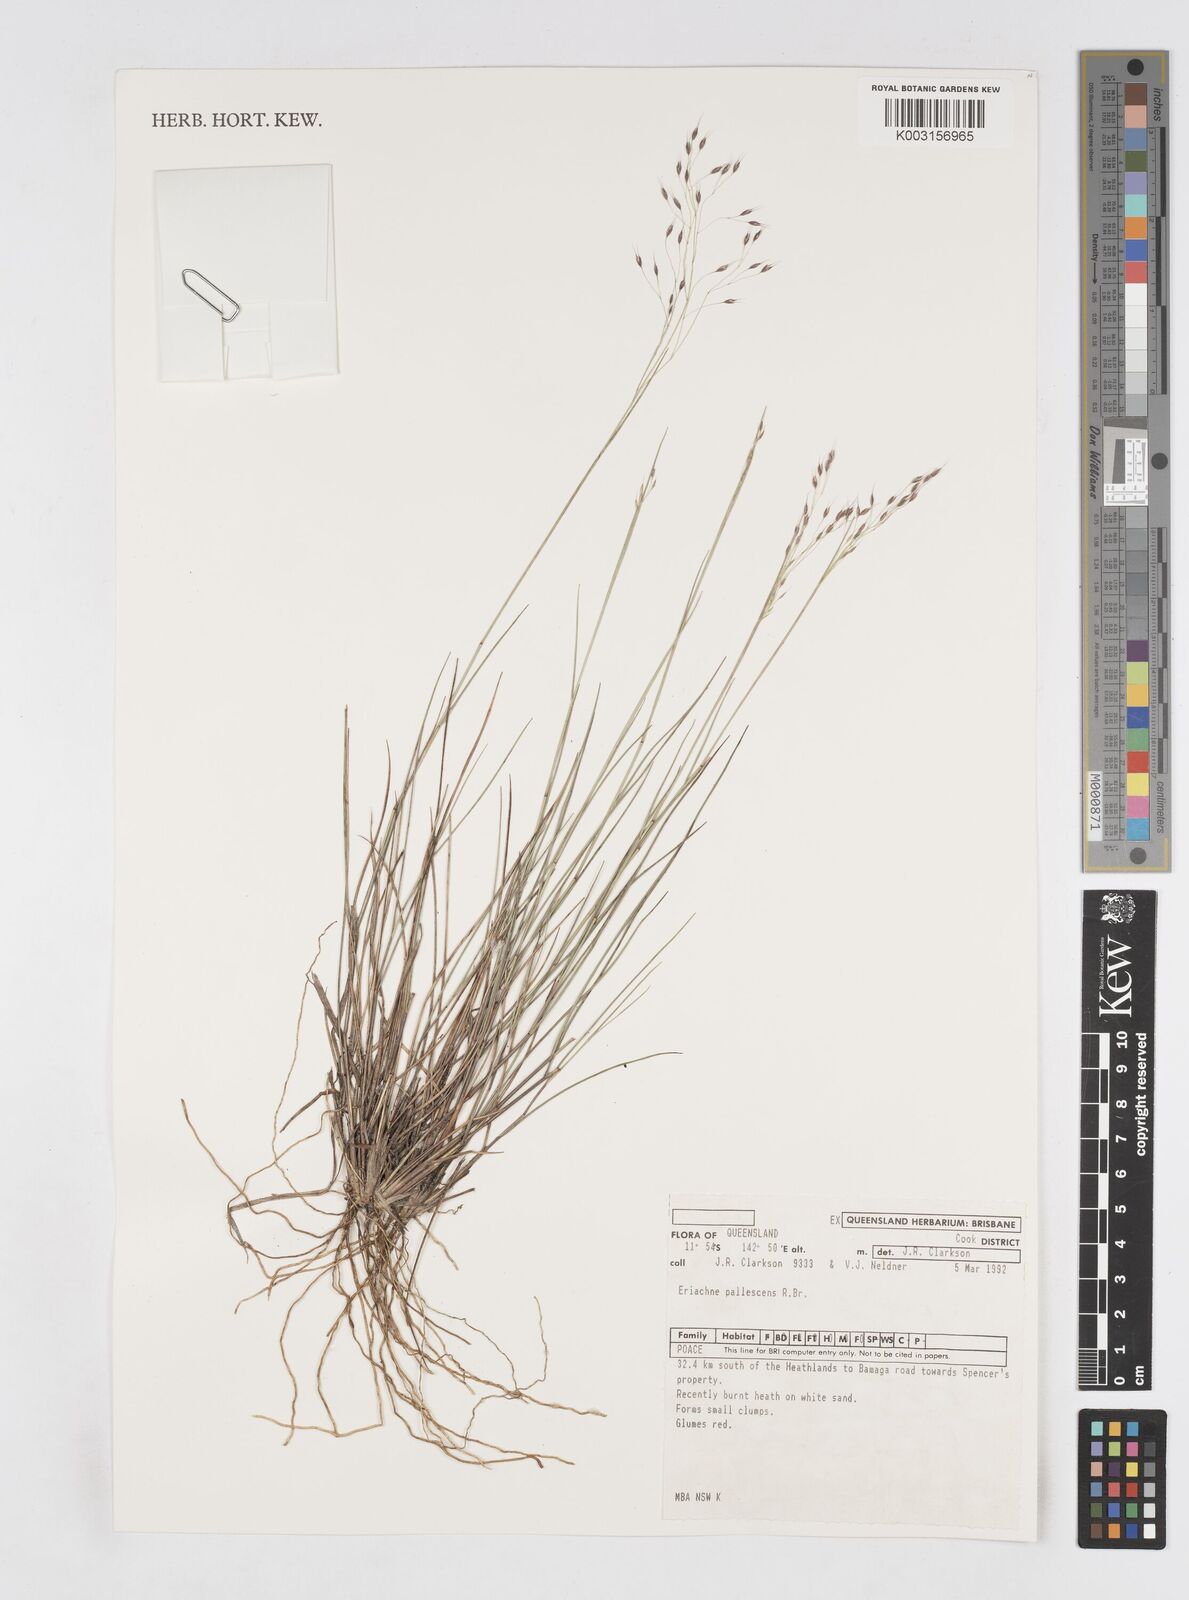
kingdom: Plantae
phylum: Tracheophyta
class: Liliopsida
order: Poales
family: Poaceae
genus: Eriachne
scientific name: Eriachne pallescens
